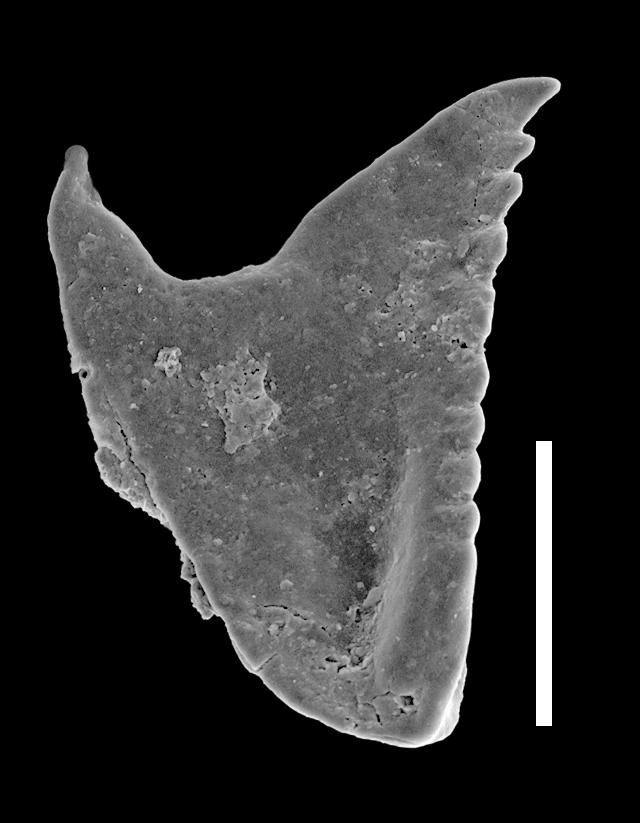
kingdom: Animalia
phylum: Annelida
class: Polychaeta
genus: Symmetroprion
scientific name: Symmetroprion
